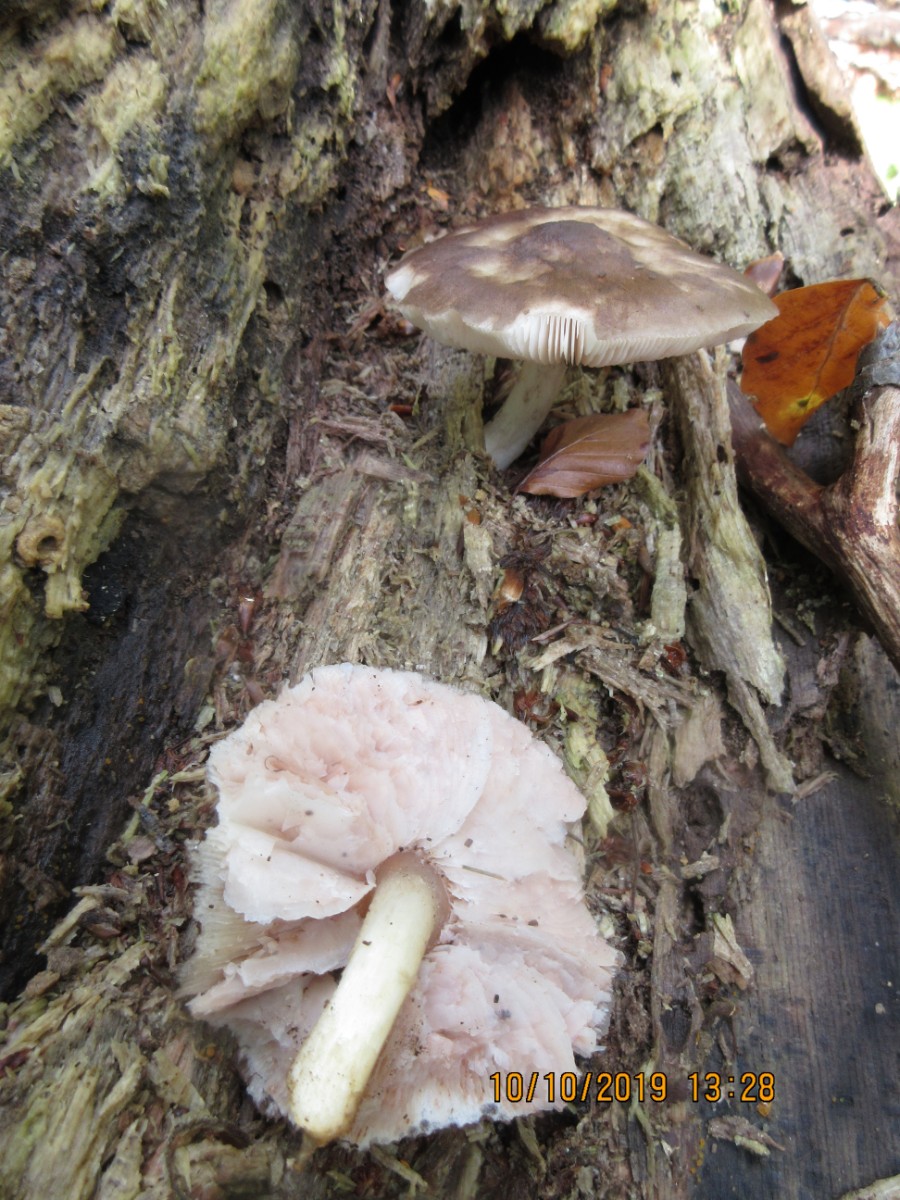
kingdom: Fungi
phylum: Basidiomycota
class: Agaricomycetes
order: Agaricales
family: Pluteaceae
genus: Pluteus
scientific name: Pluteus cervinus
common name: sodfarvet skærmhat
